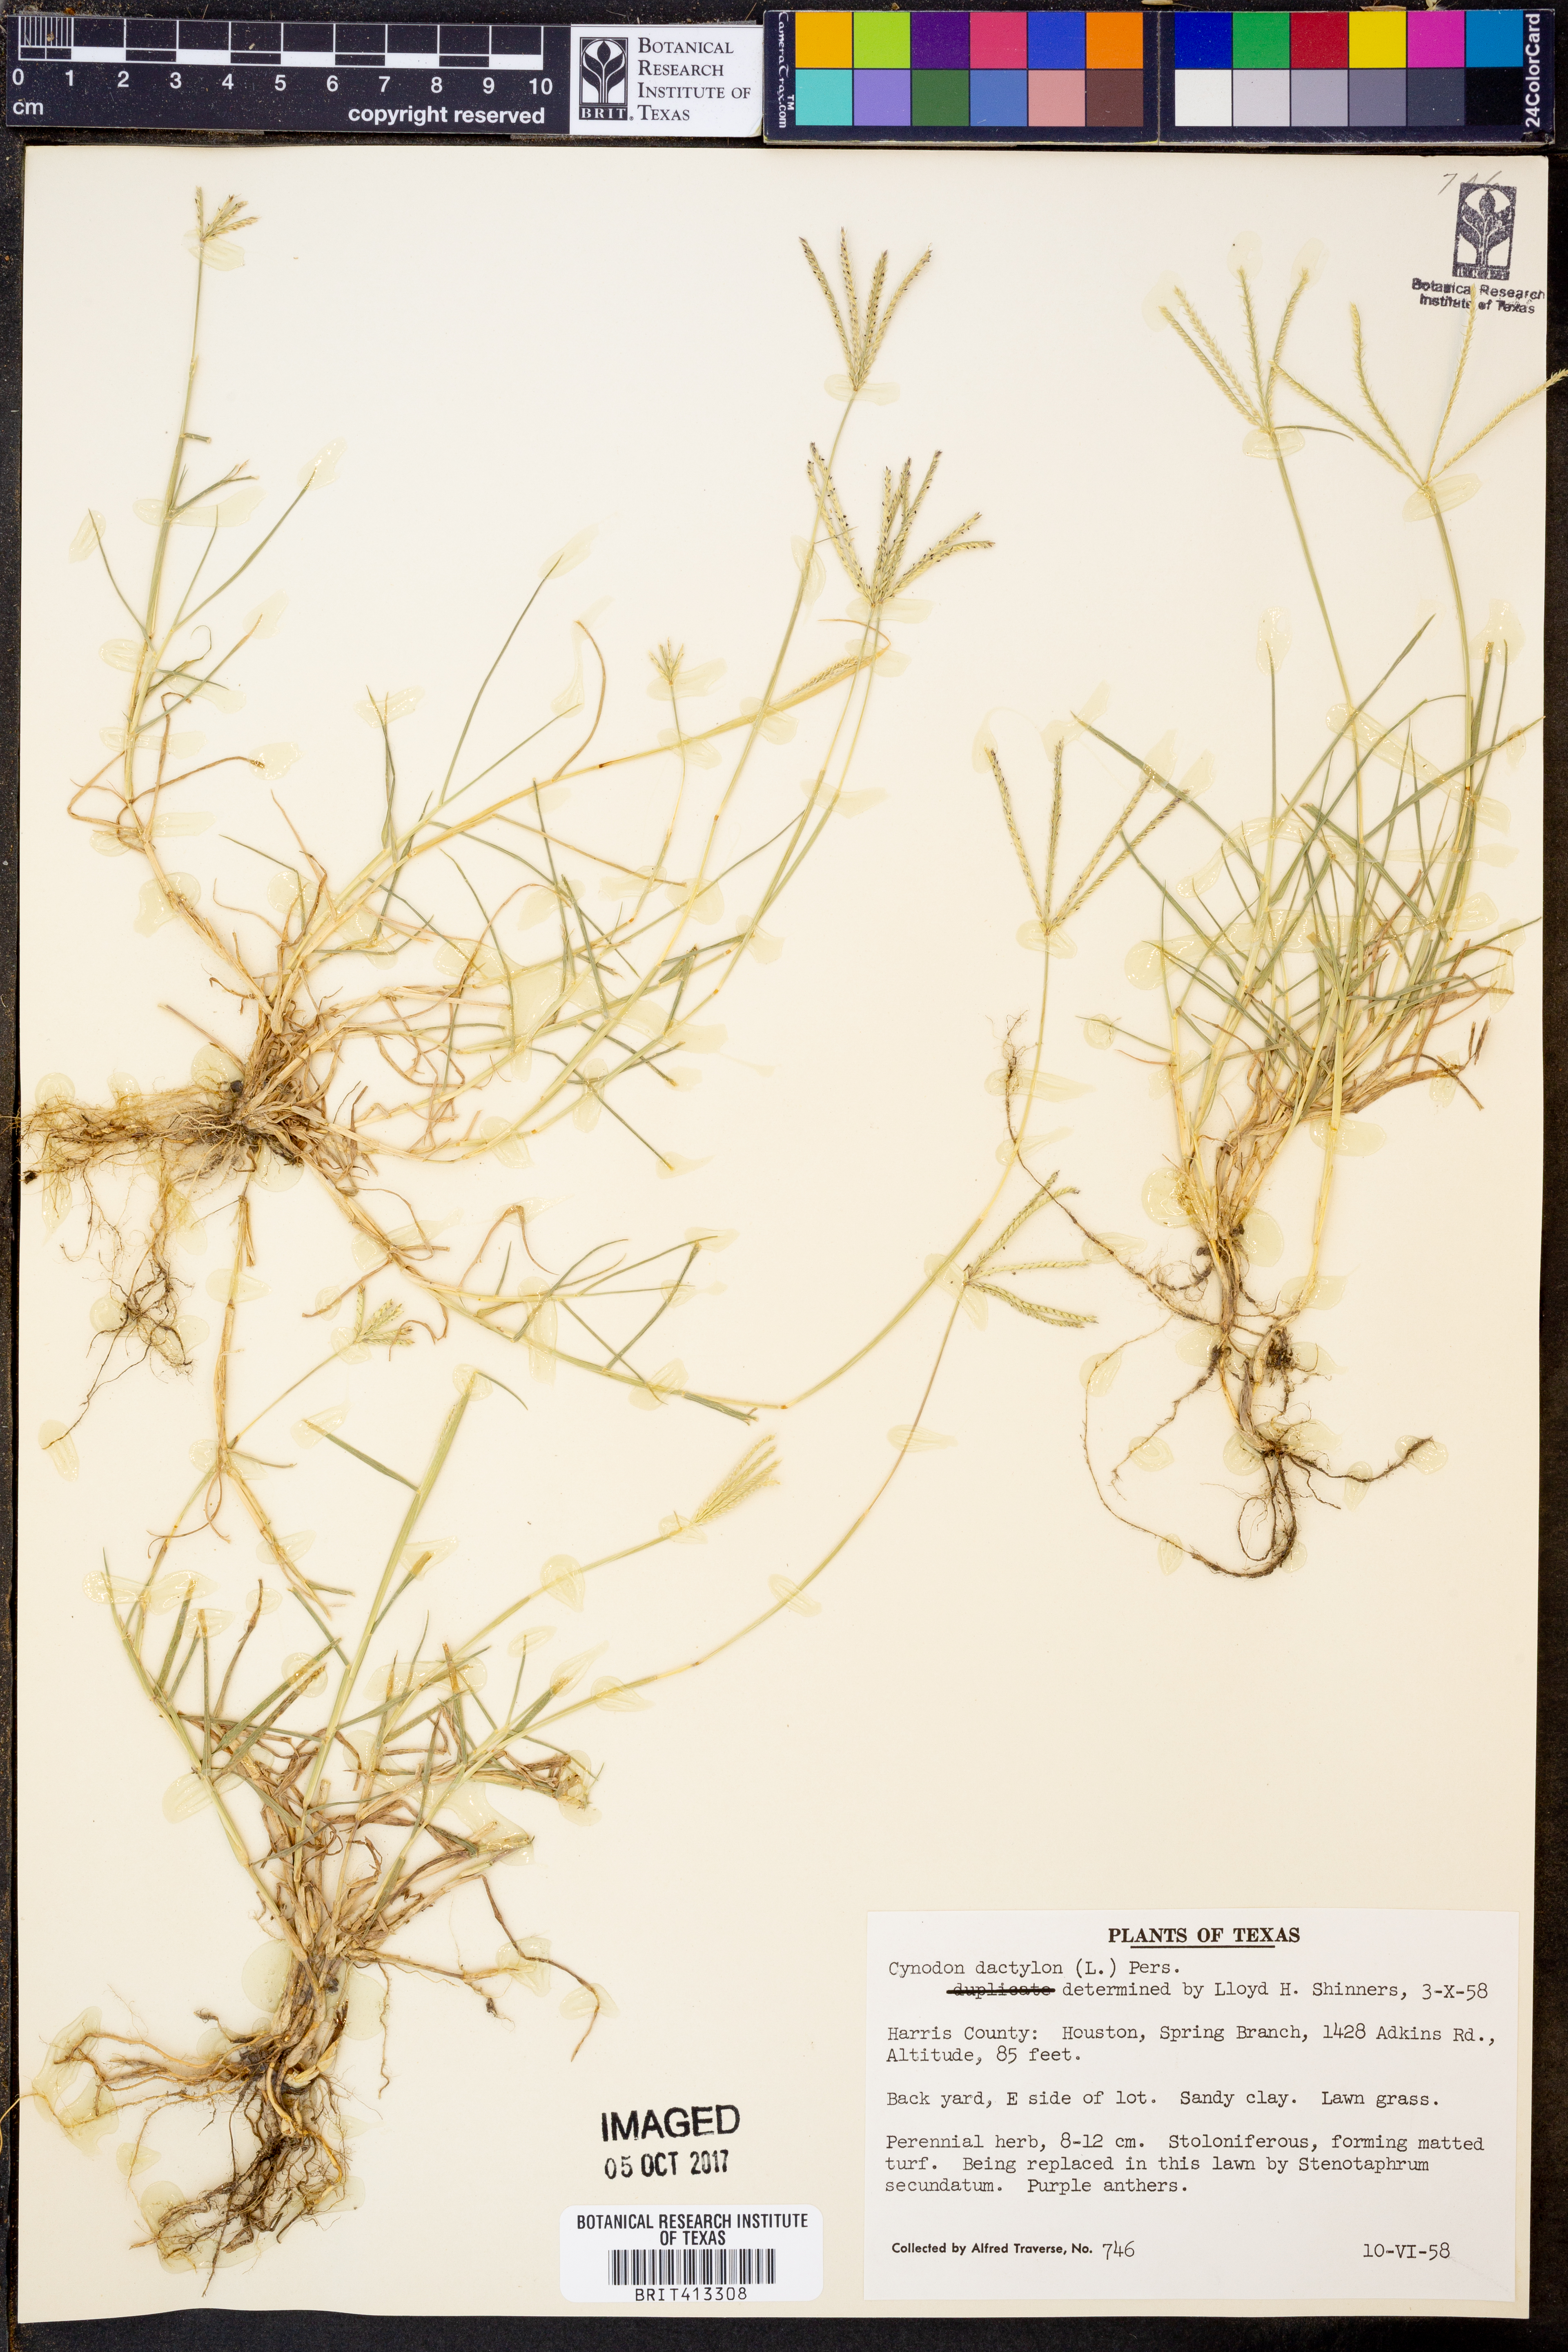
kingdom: Plantae
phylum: Tracheophyta
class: Liliopsida
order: Poales
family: Poaceae
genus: Cynodon
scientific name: Cynodon dactylon
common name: Bermuda grass
